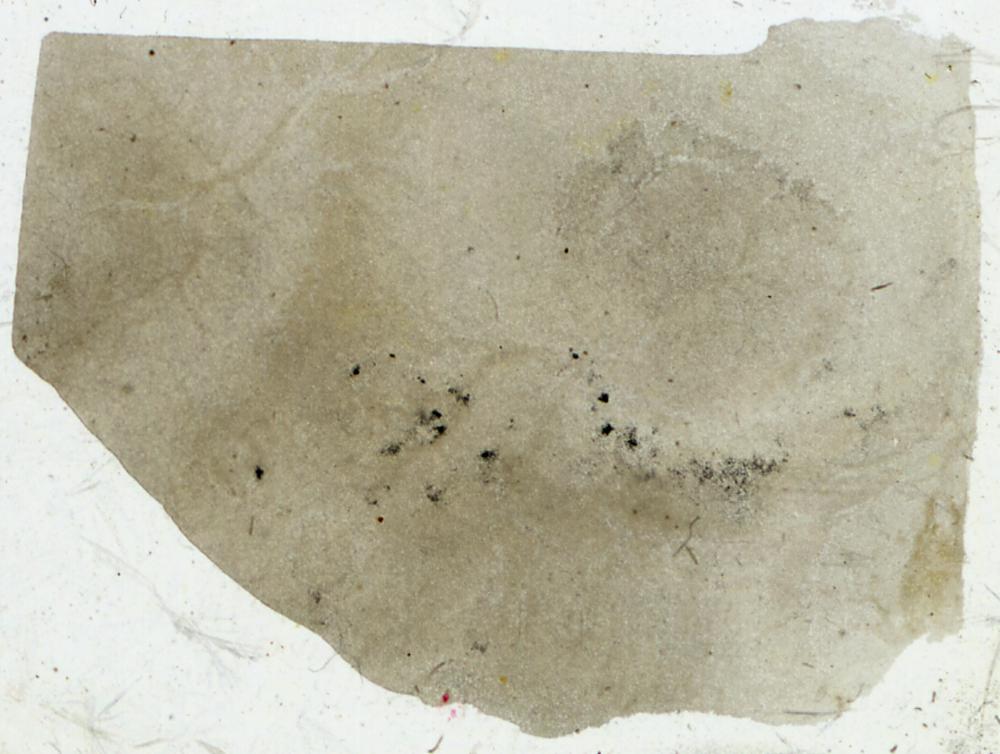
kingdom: Animalia
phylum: Porifera
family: Densastromatidae
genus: Densastroma
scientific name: Densastroma
